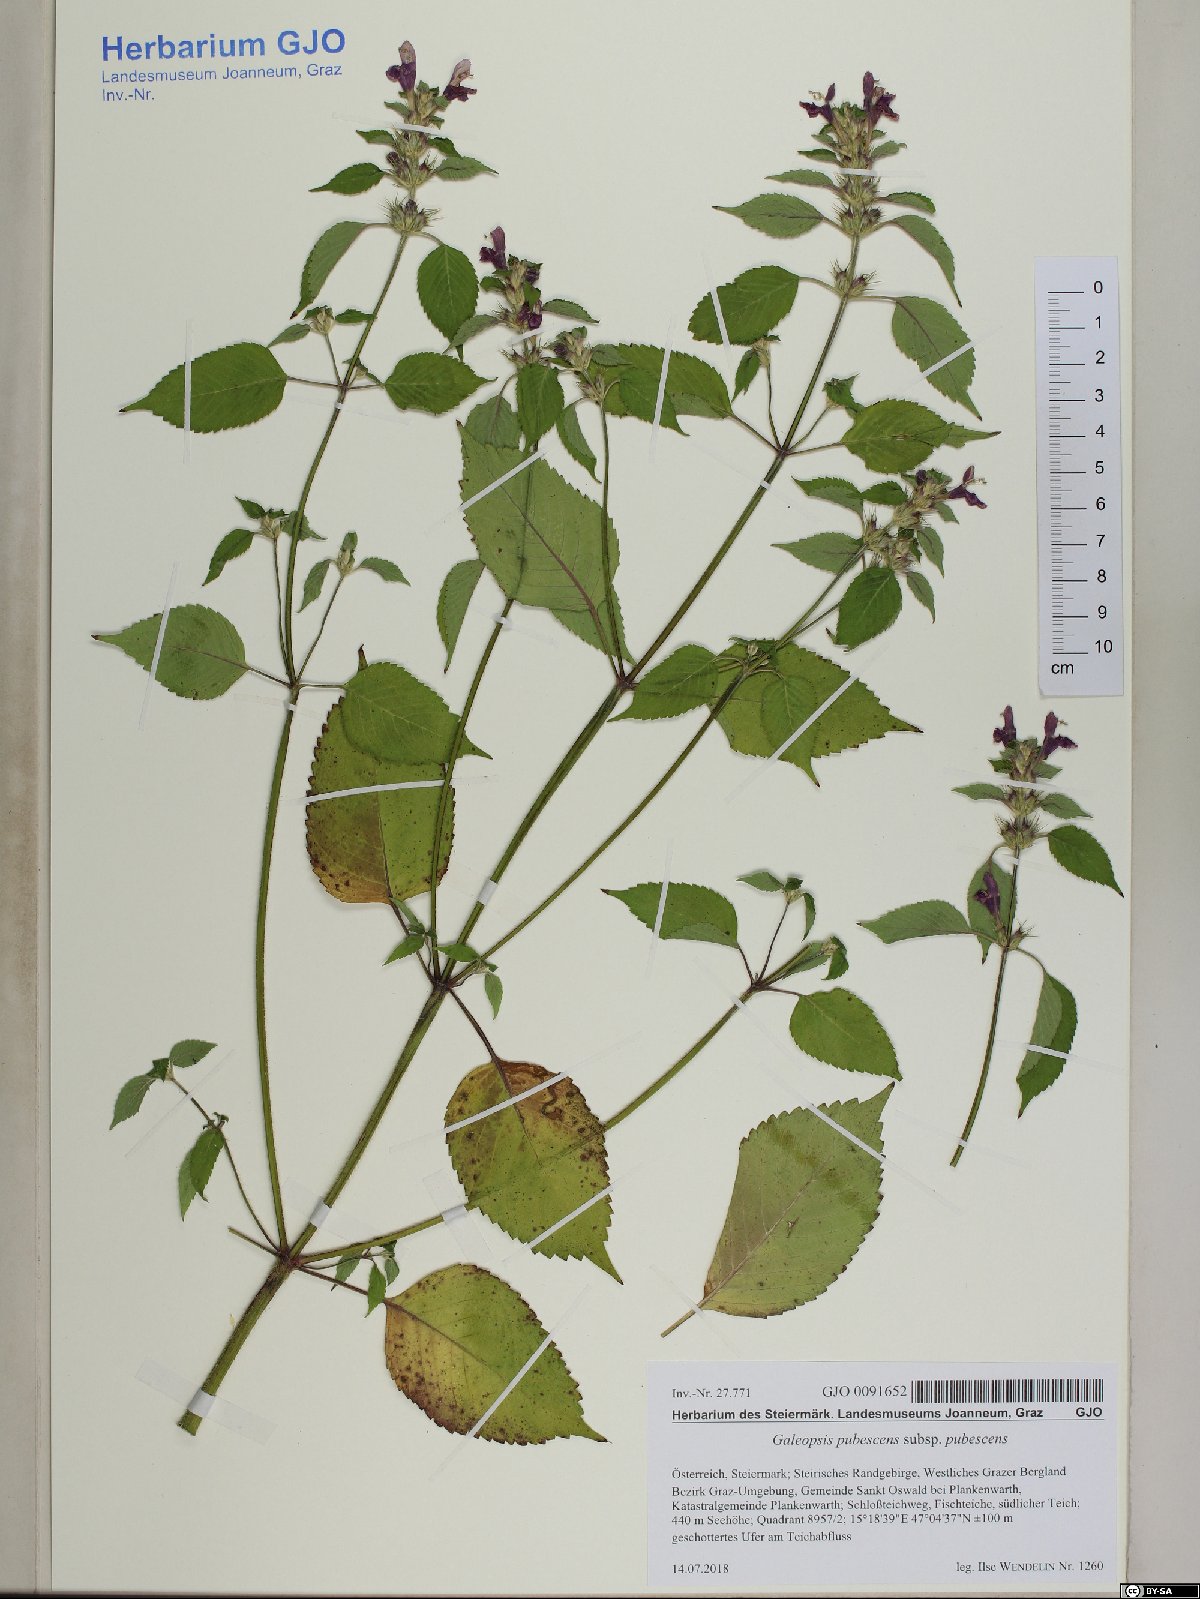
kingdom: Plantae
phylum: Tracheophyta
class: Magnoliopsida
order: Lamiales
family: Lamiaceae
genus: Galeopsis
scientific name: Galeopsis pubescens
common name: Downy hemp-nettle
